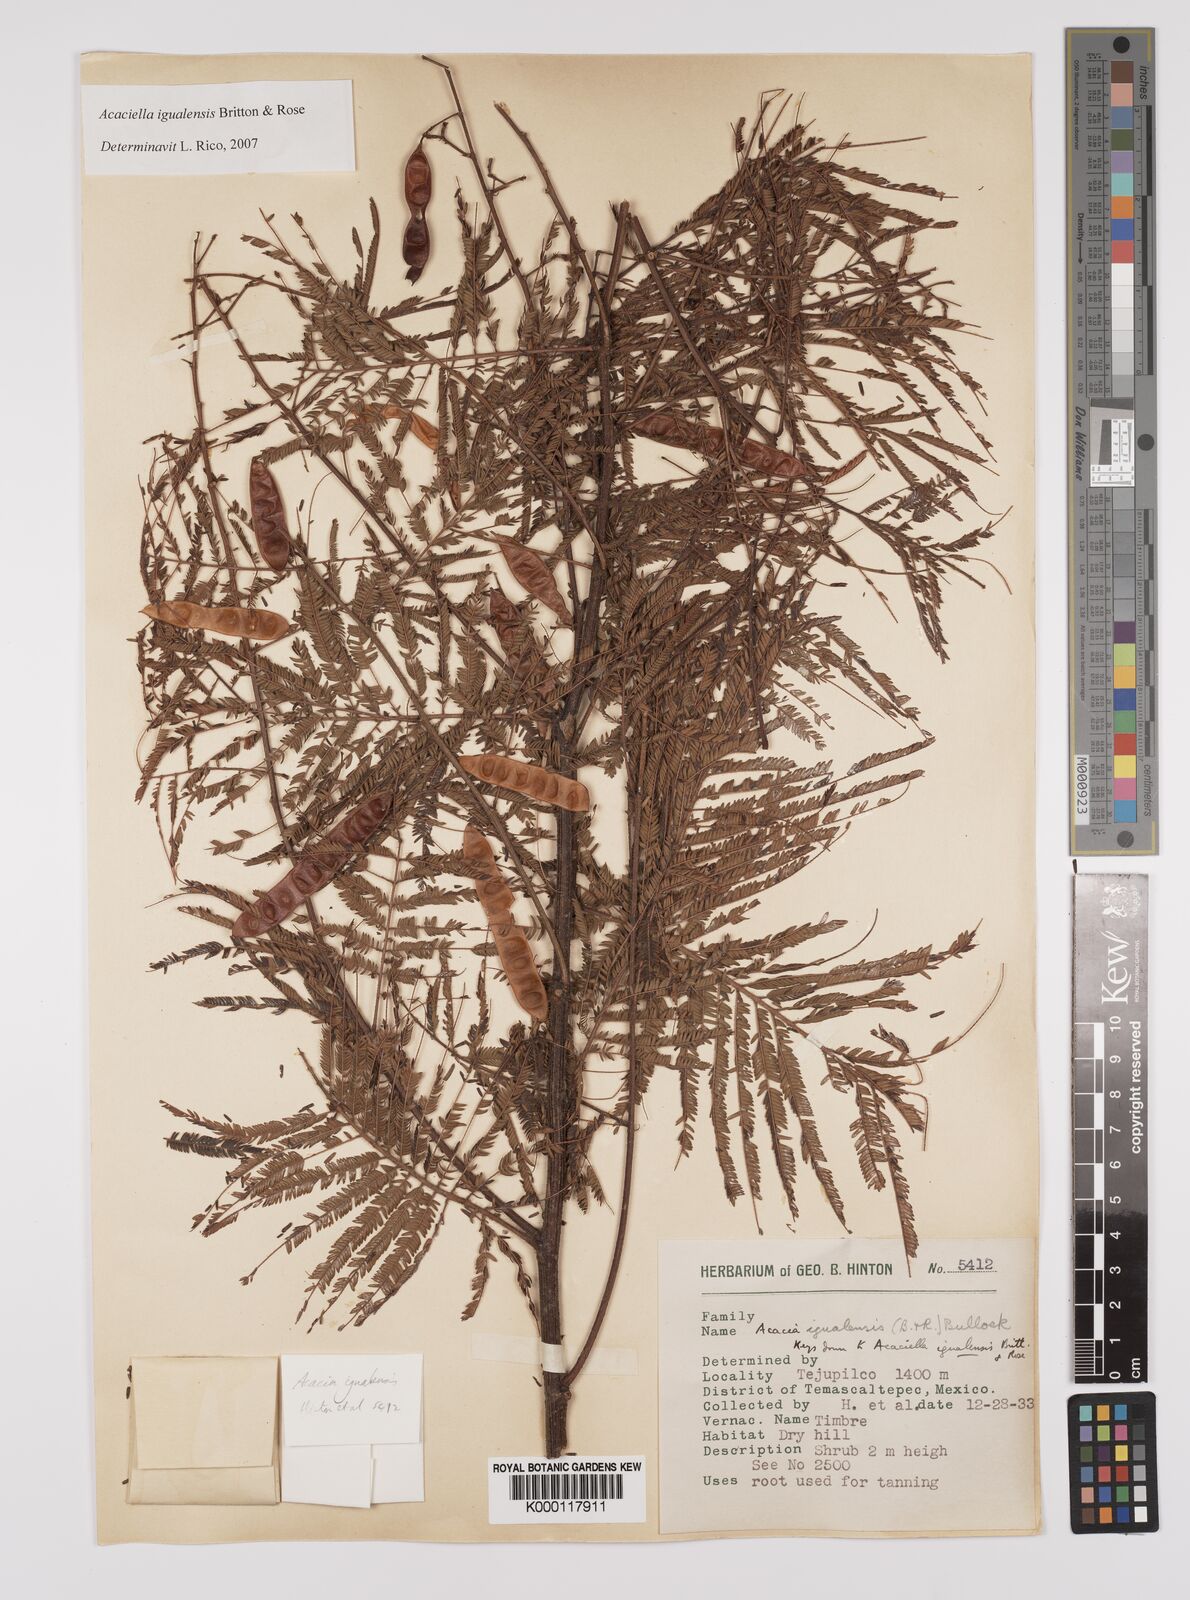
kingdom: Plantae
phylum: Tracheophyta
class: Magnoliopsida
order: Fabales
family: Fabaceae
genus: Acaciella
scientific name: Acaciella igualensis
